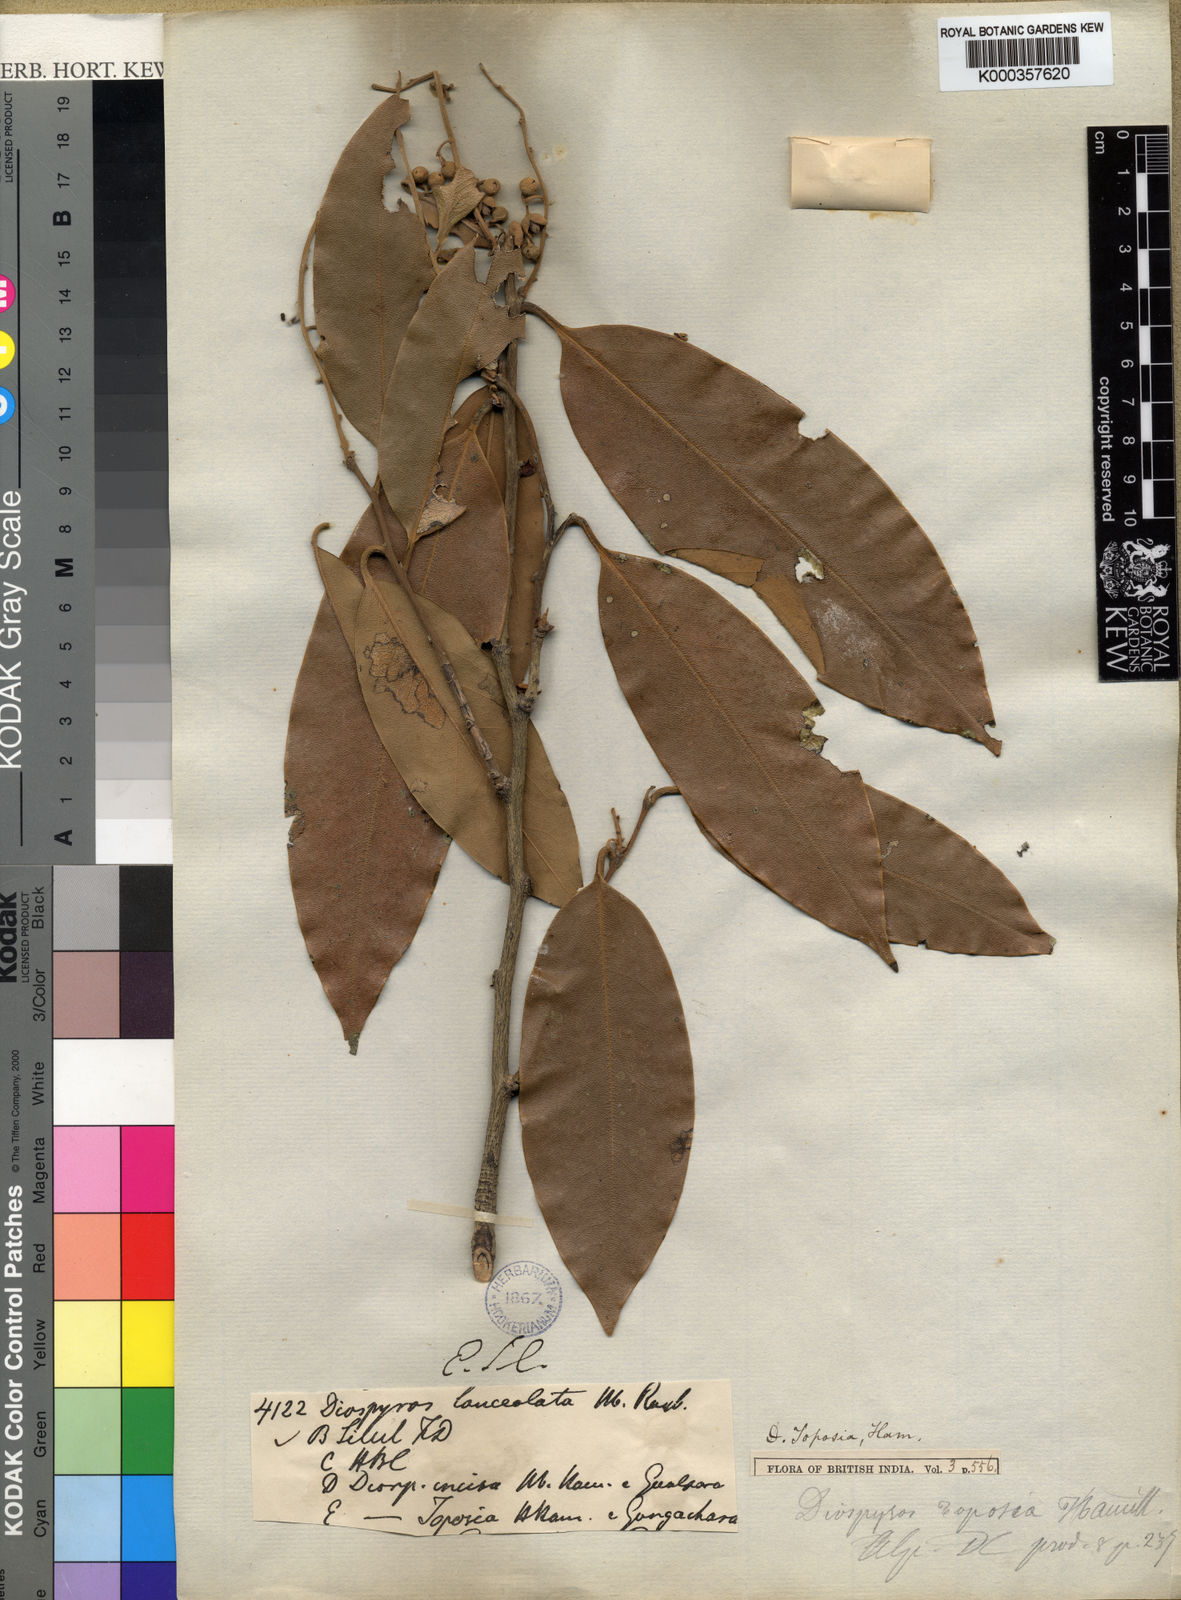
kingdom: Plantae
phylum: Tracheophyta
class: Magnoliopsida
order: Ericales
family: Ebenaceae
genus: Diospyros
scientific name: Diospyros toposia
